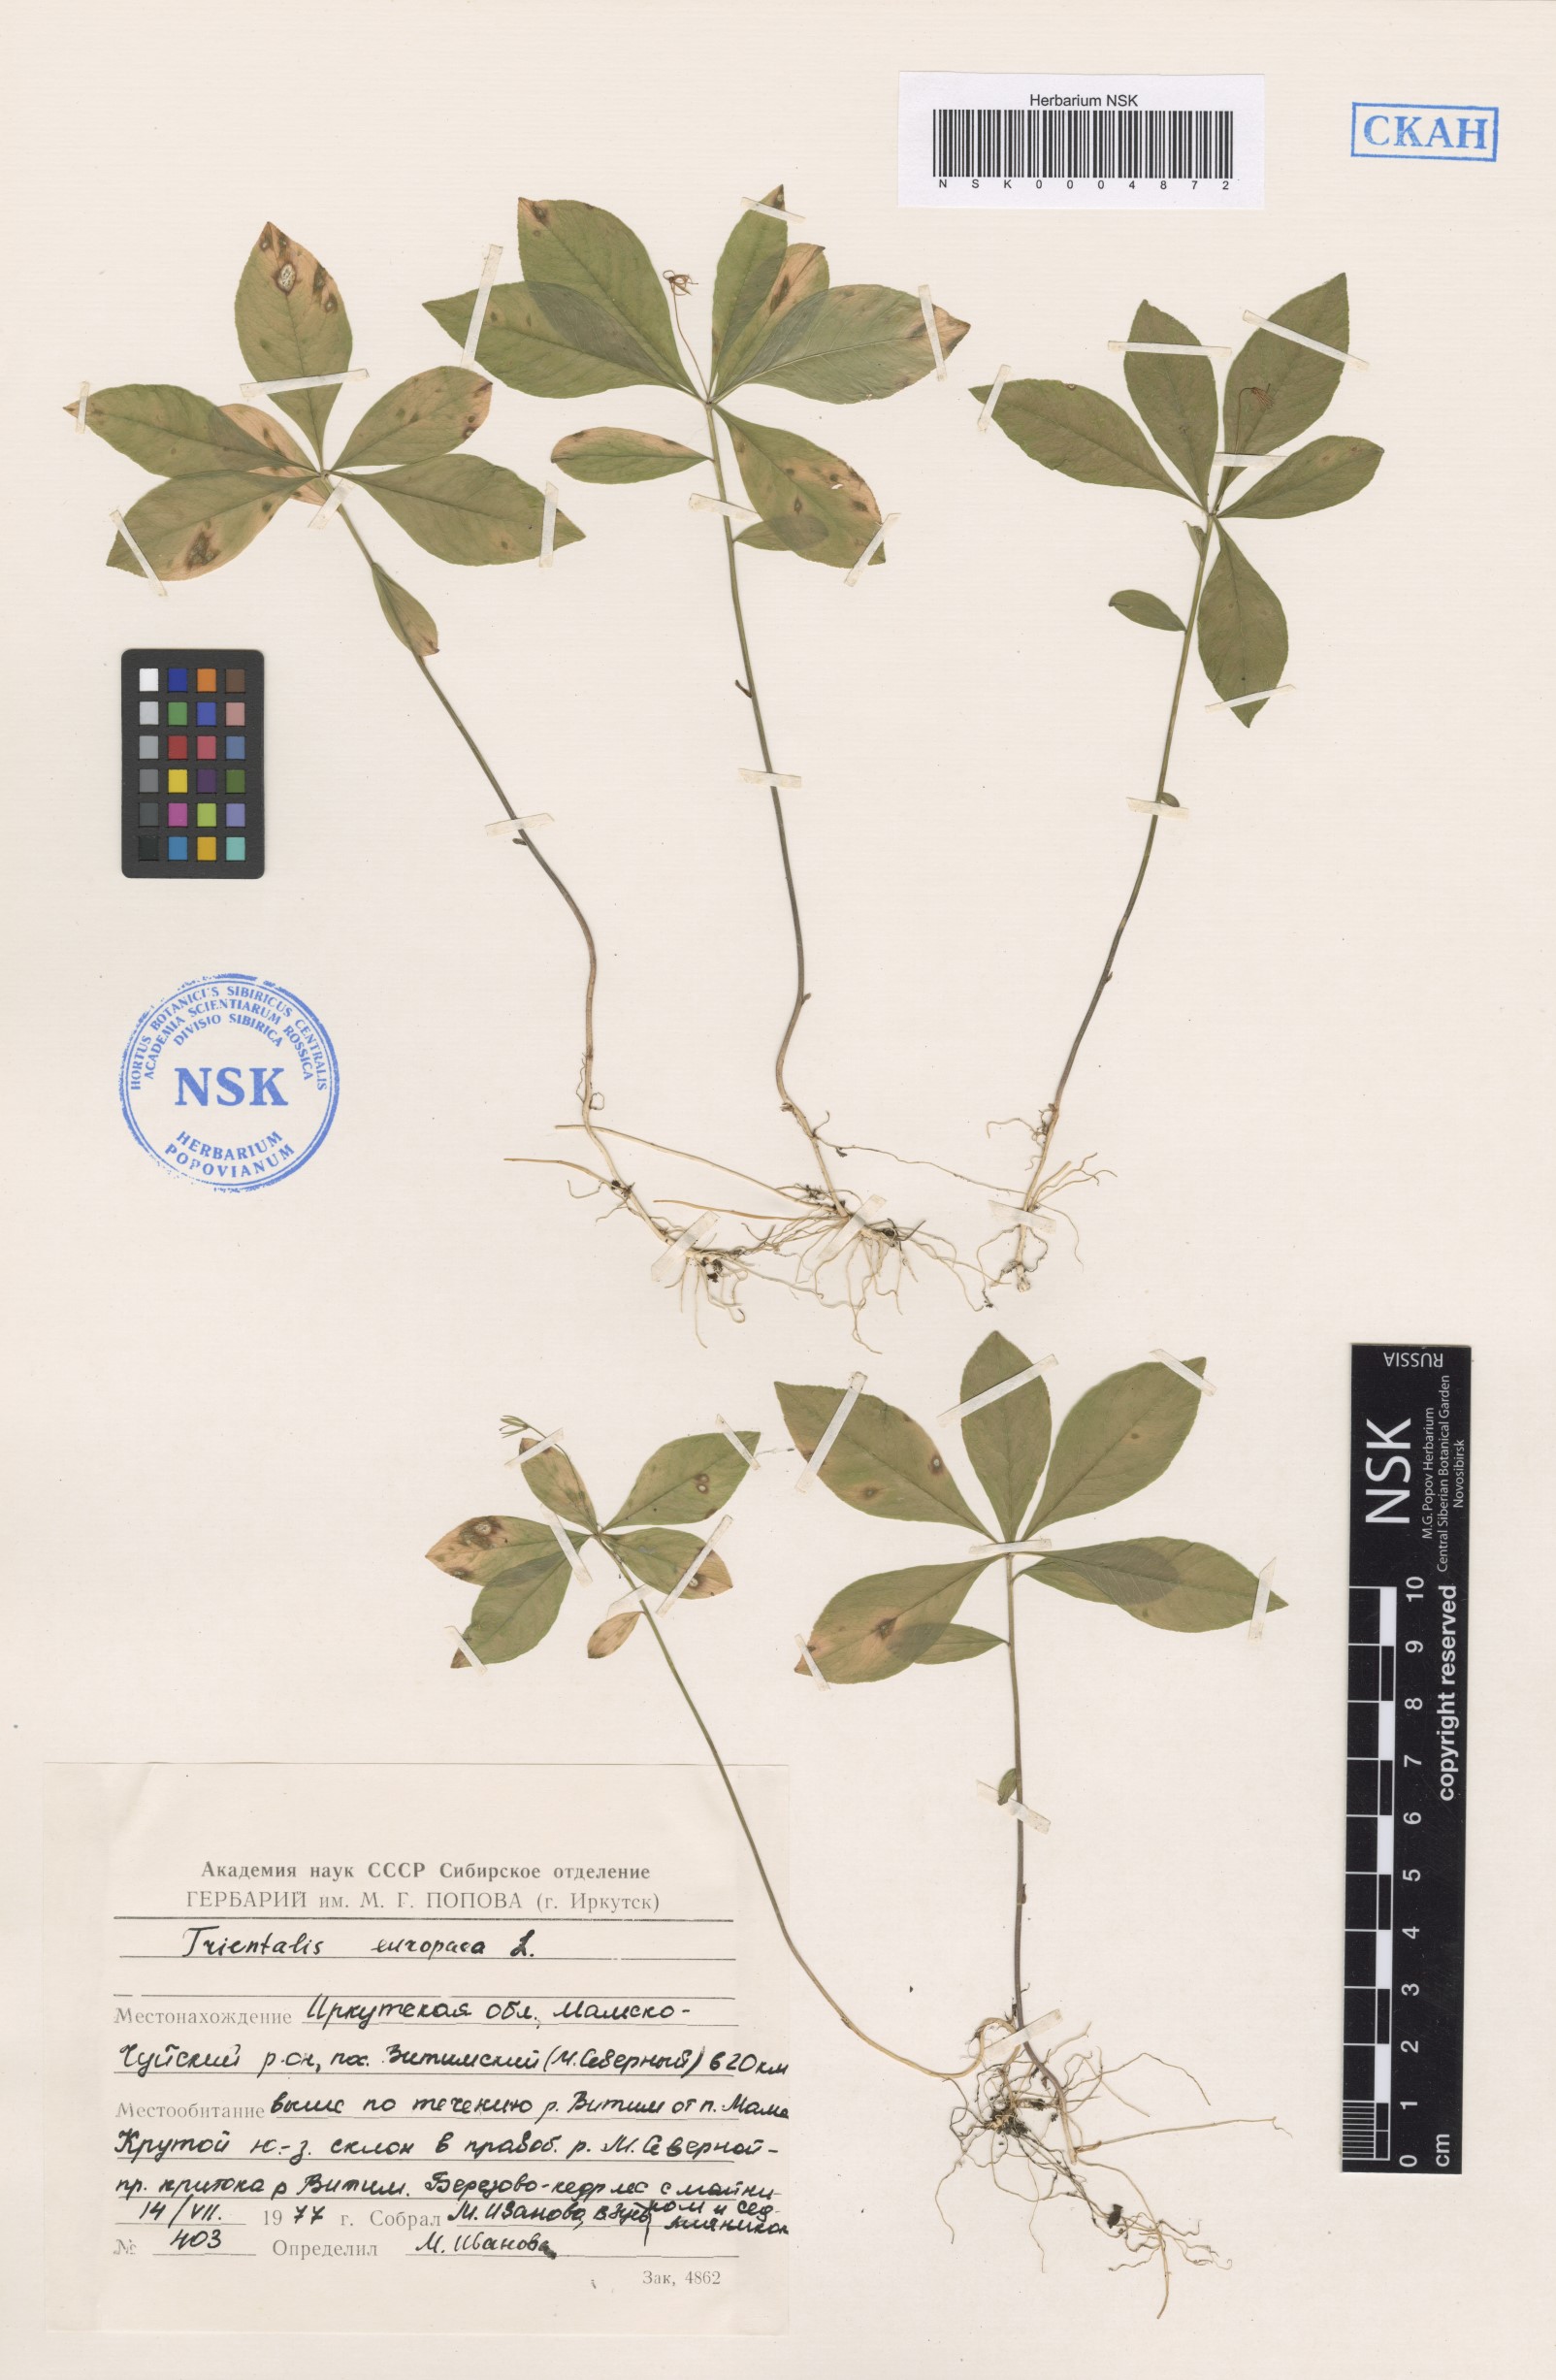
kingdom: Plantae
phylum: Tracheophyta
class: Magnoliopsida
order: Ericales
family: Primulaceae
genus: Lysimachia
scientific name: Lysimachia europaea
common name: Arctic starflower
